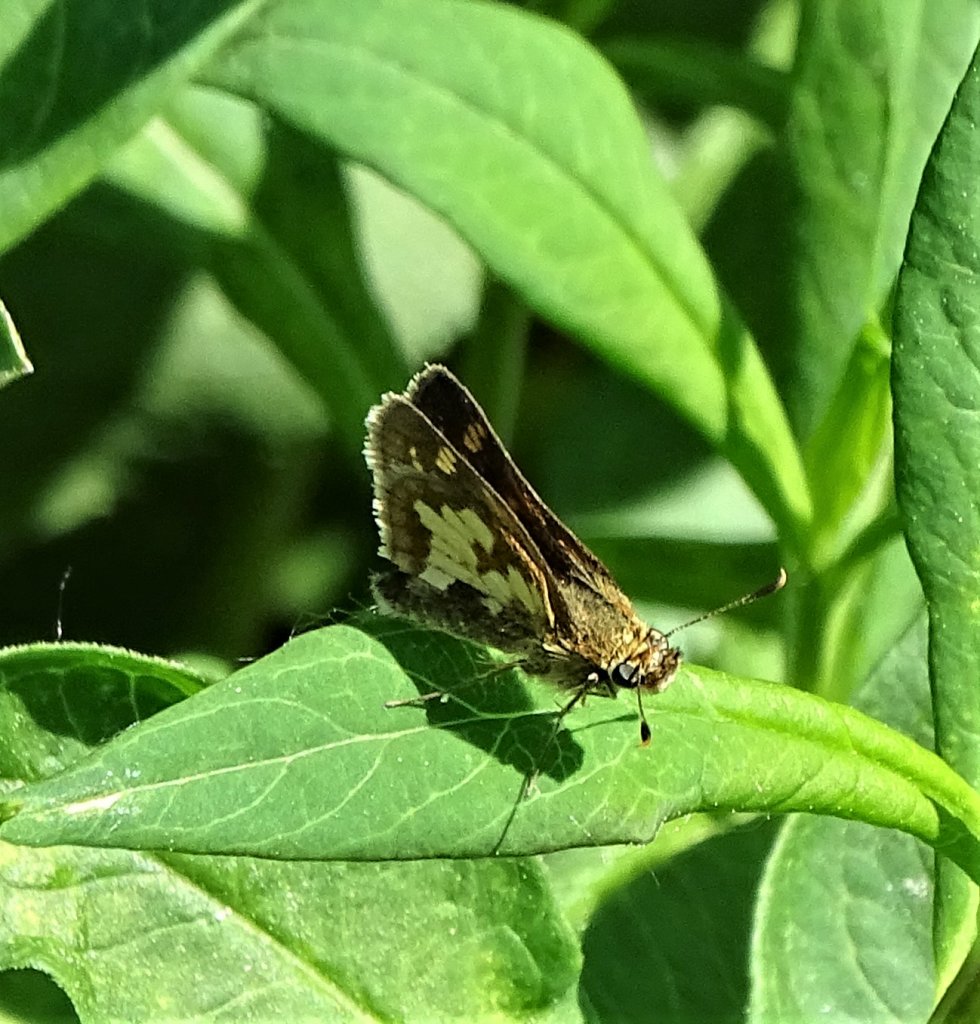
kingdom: Animalia
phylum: Arthropoda
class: Insecta
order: Lepidoptera
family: Hesperiidae
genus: Polites
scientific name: Polites coras
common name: Peck's Skipper
